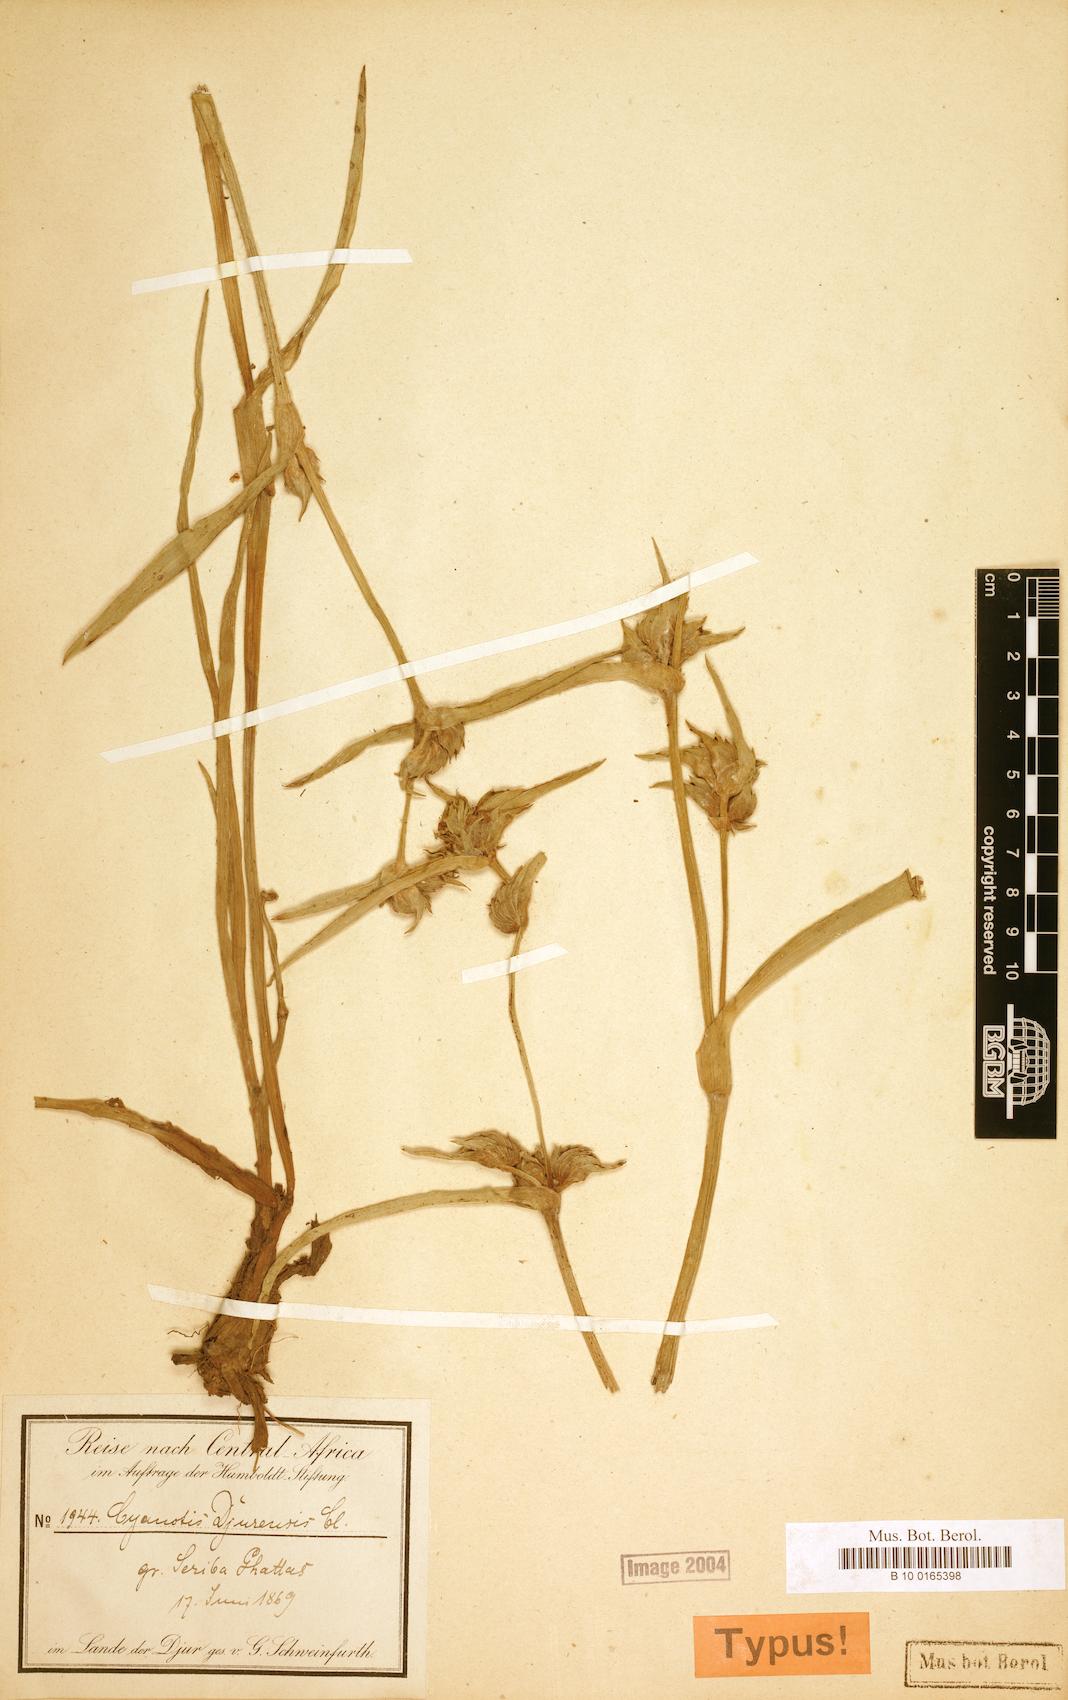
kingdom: Plantae
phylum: Tracheophyta
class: Liliopsida
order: Commelinales
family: Commelinaceae
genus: Cyanotis
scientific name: Cyanotis longifolia
